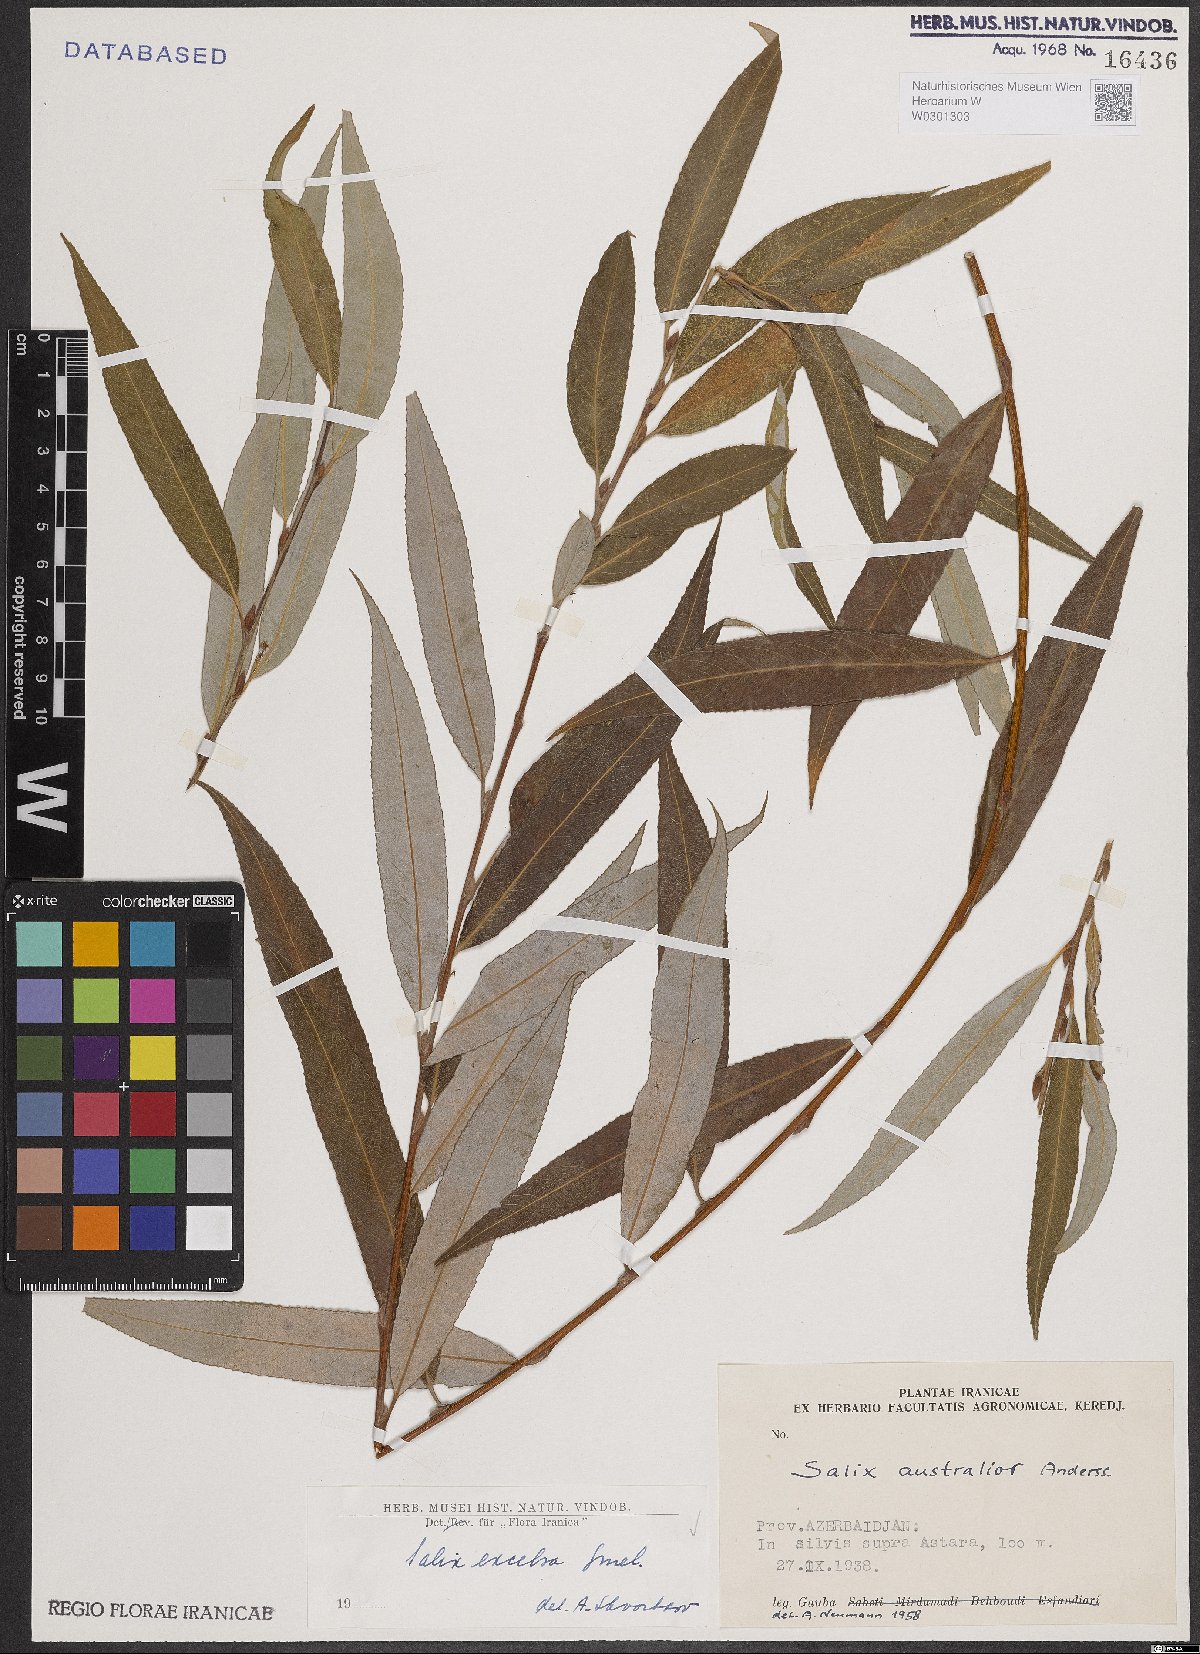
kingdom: Plantae
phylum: Tracheophyta
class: Magnoliopsida
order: Malpighiales
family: Salicaceae
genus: Salix
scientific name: Salix excelsa
